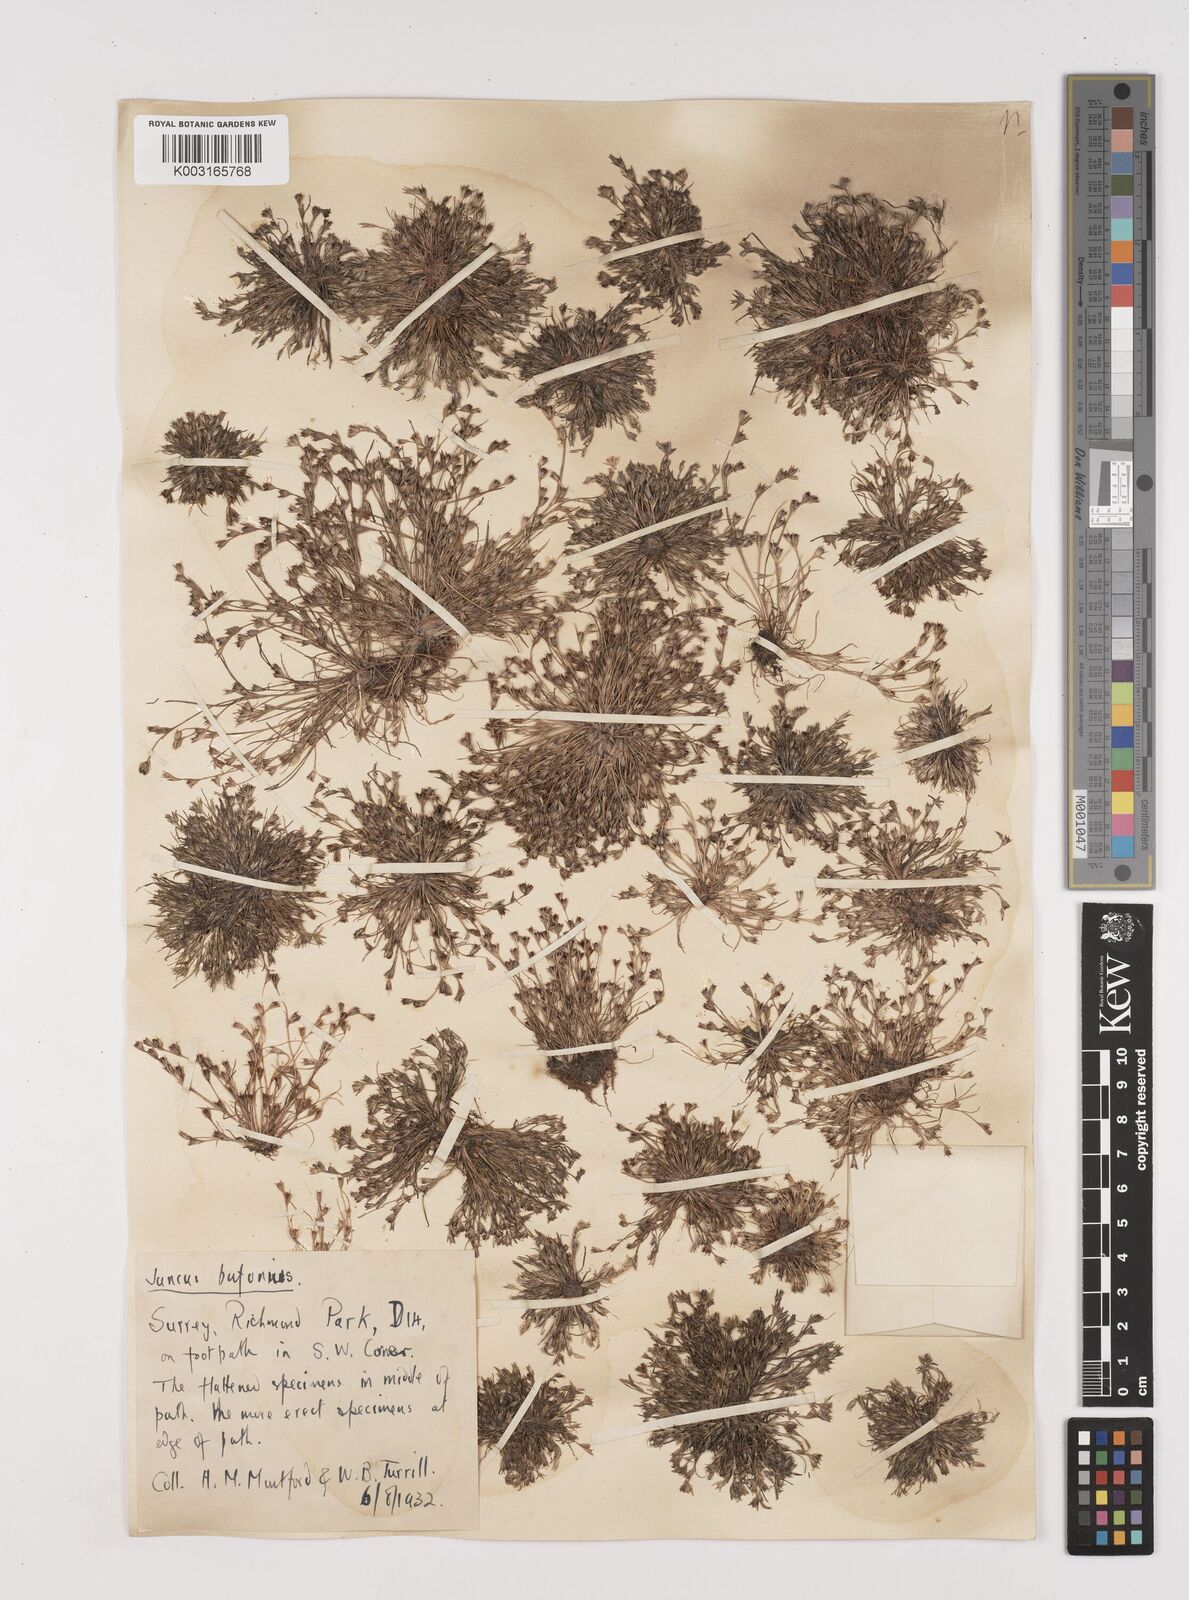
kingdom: Plantae
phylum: Tracheophyta
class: Liliopsida
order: Poales
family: Juncaceae
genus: Juncus
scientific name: Juncus bufonius
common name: Toad rush
